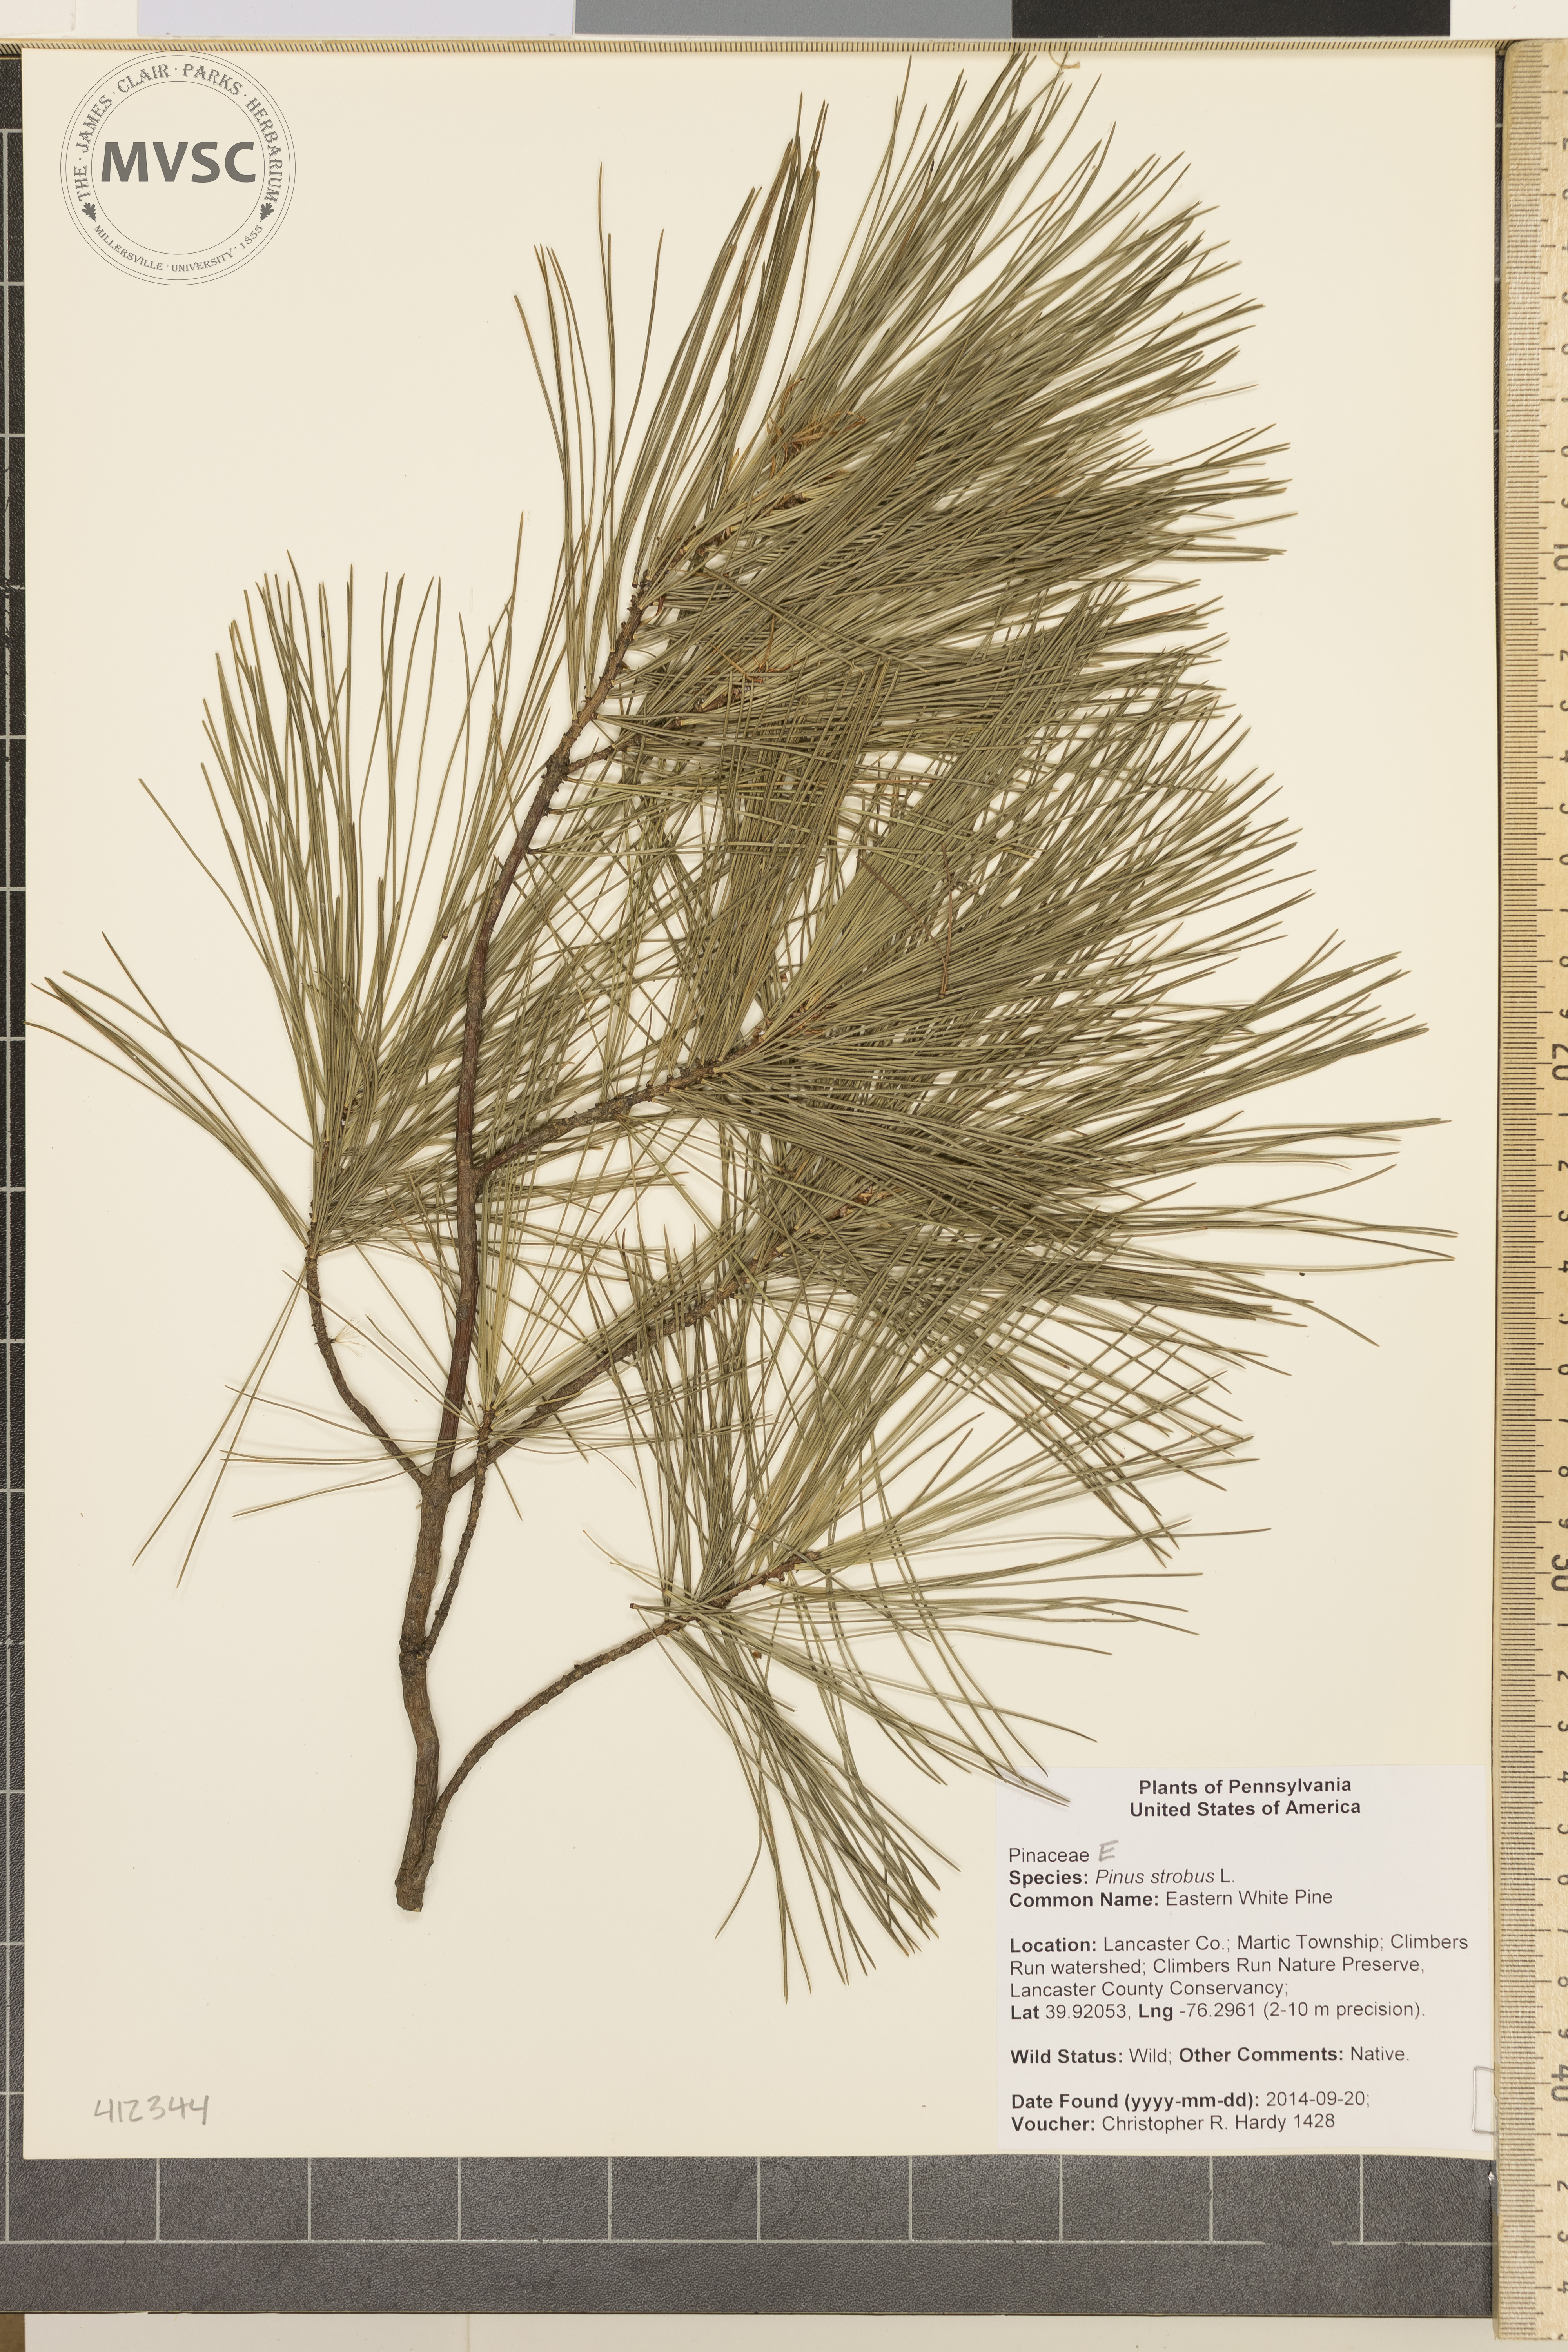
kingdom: Plantae
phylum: Tracheophyta
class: Pinopsida
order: Pinales
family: Pinaceae
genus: Pinus
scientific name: Pinus strobus
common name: Eastern white pine
